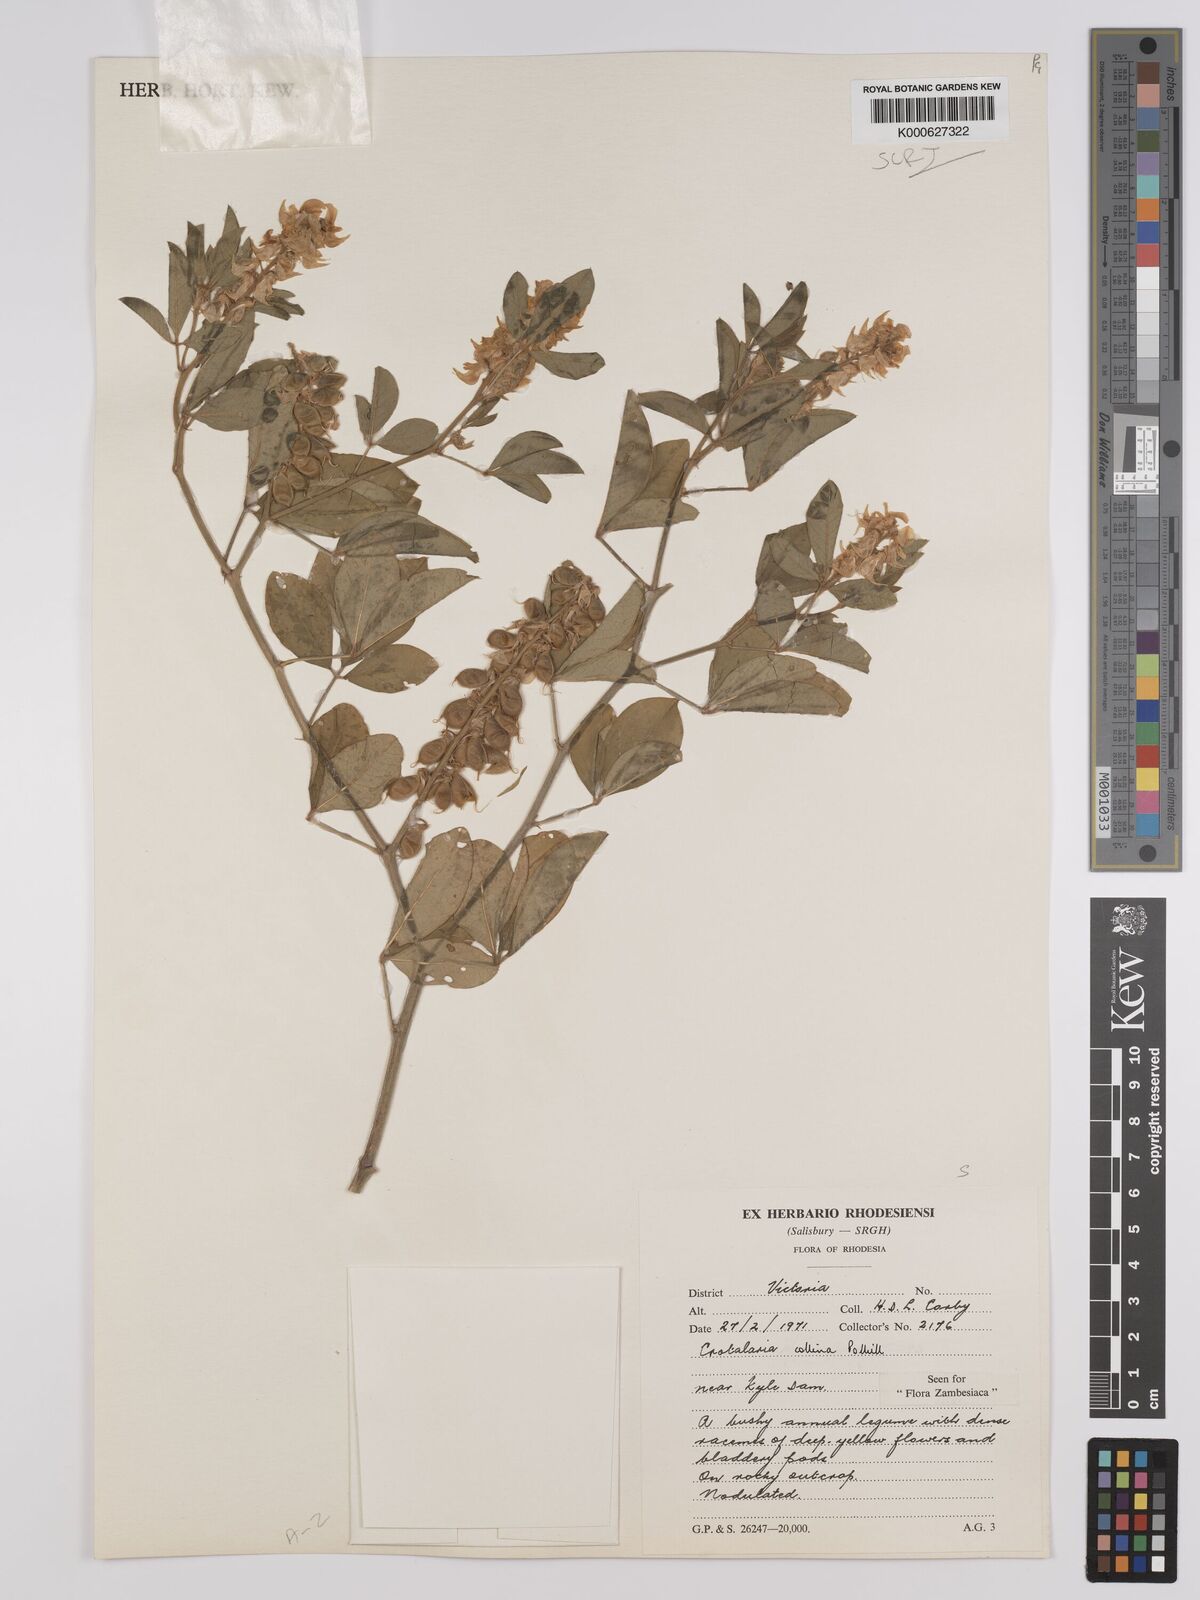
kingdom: Plantae
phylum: Tracheophyta
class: Magnoliopsida
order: Fabales
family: Fabaceae
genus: Crotalaria
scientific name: Crotalaria collina
